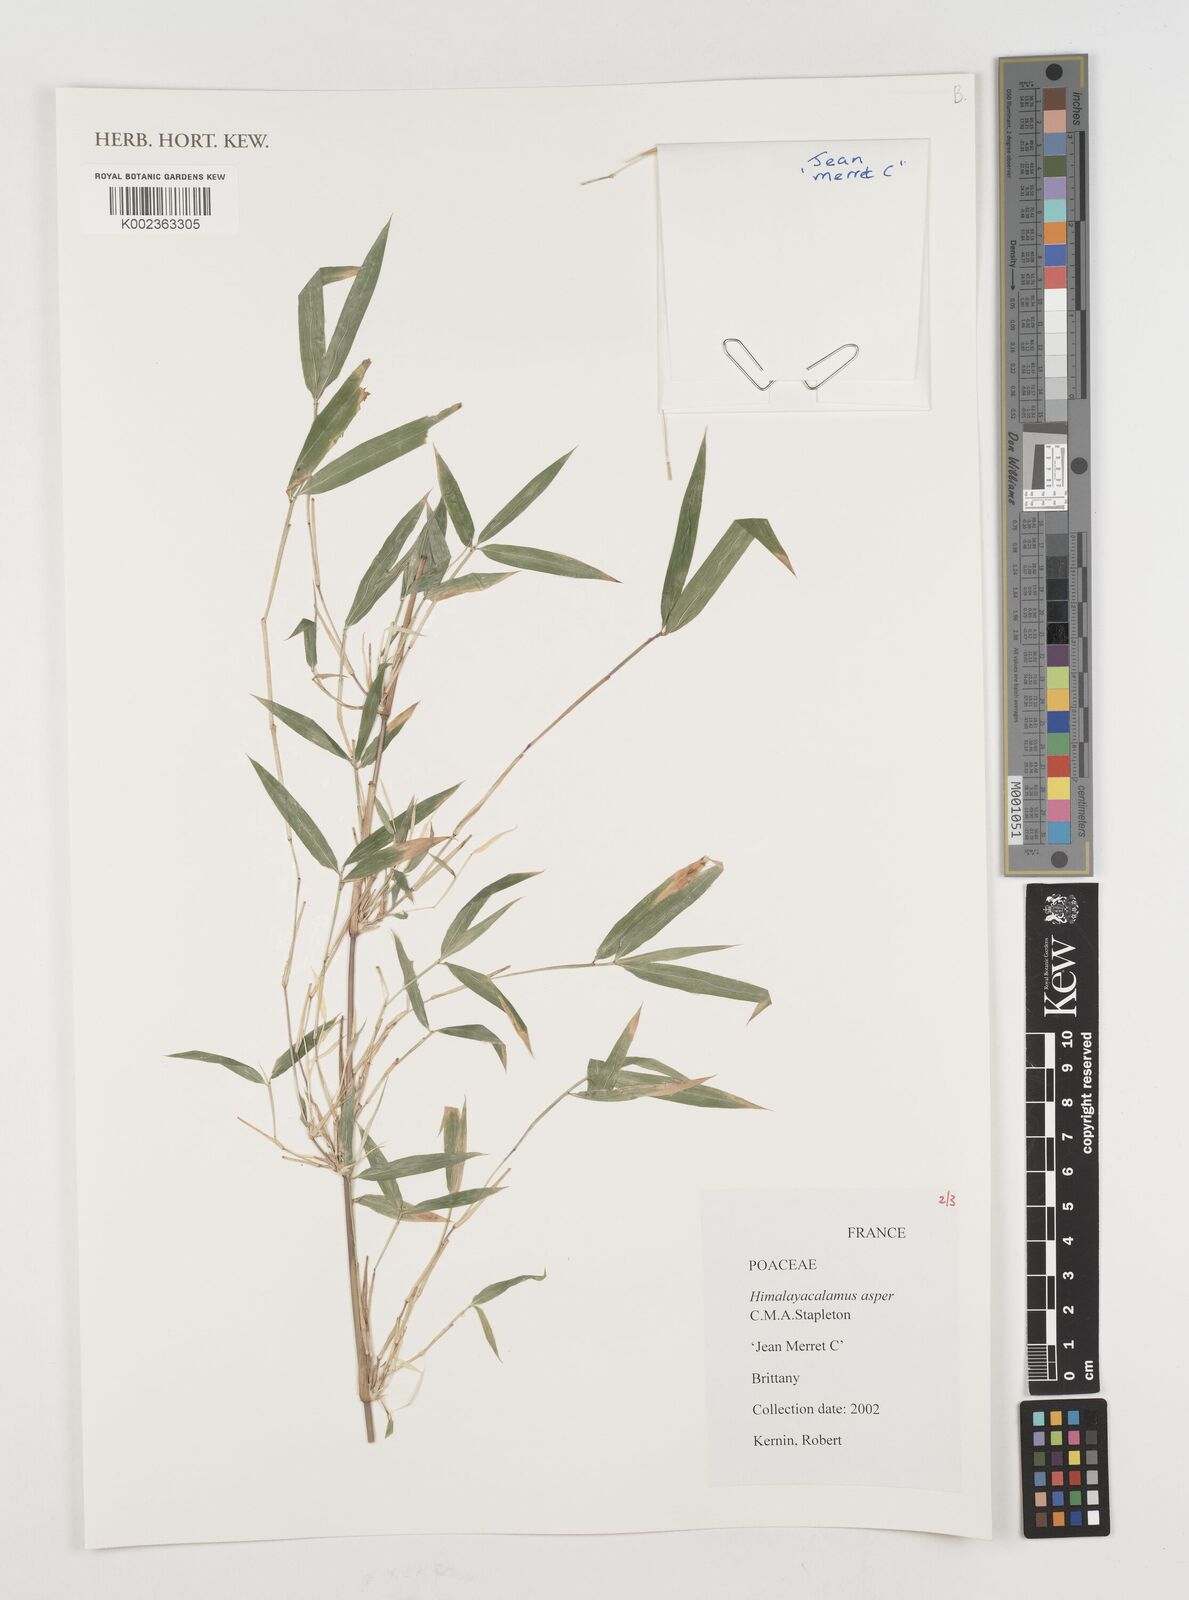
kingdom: Plantae
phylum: Tracheophyta
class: Liliopsida
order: Poales
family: Poaceae
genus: Himalayacalamus
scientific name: Himalayacalamus asper
